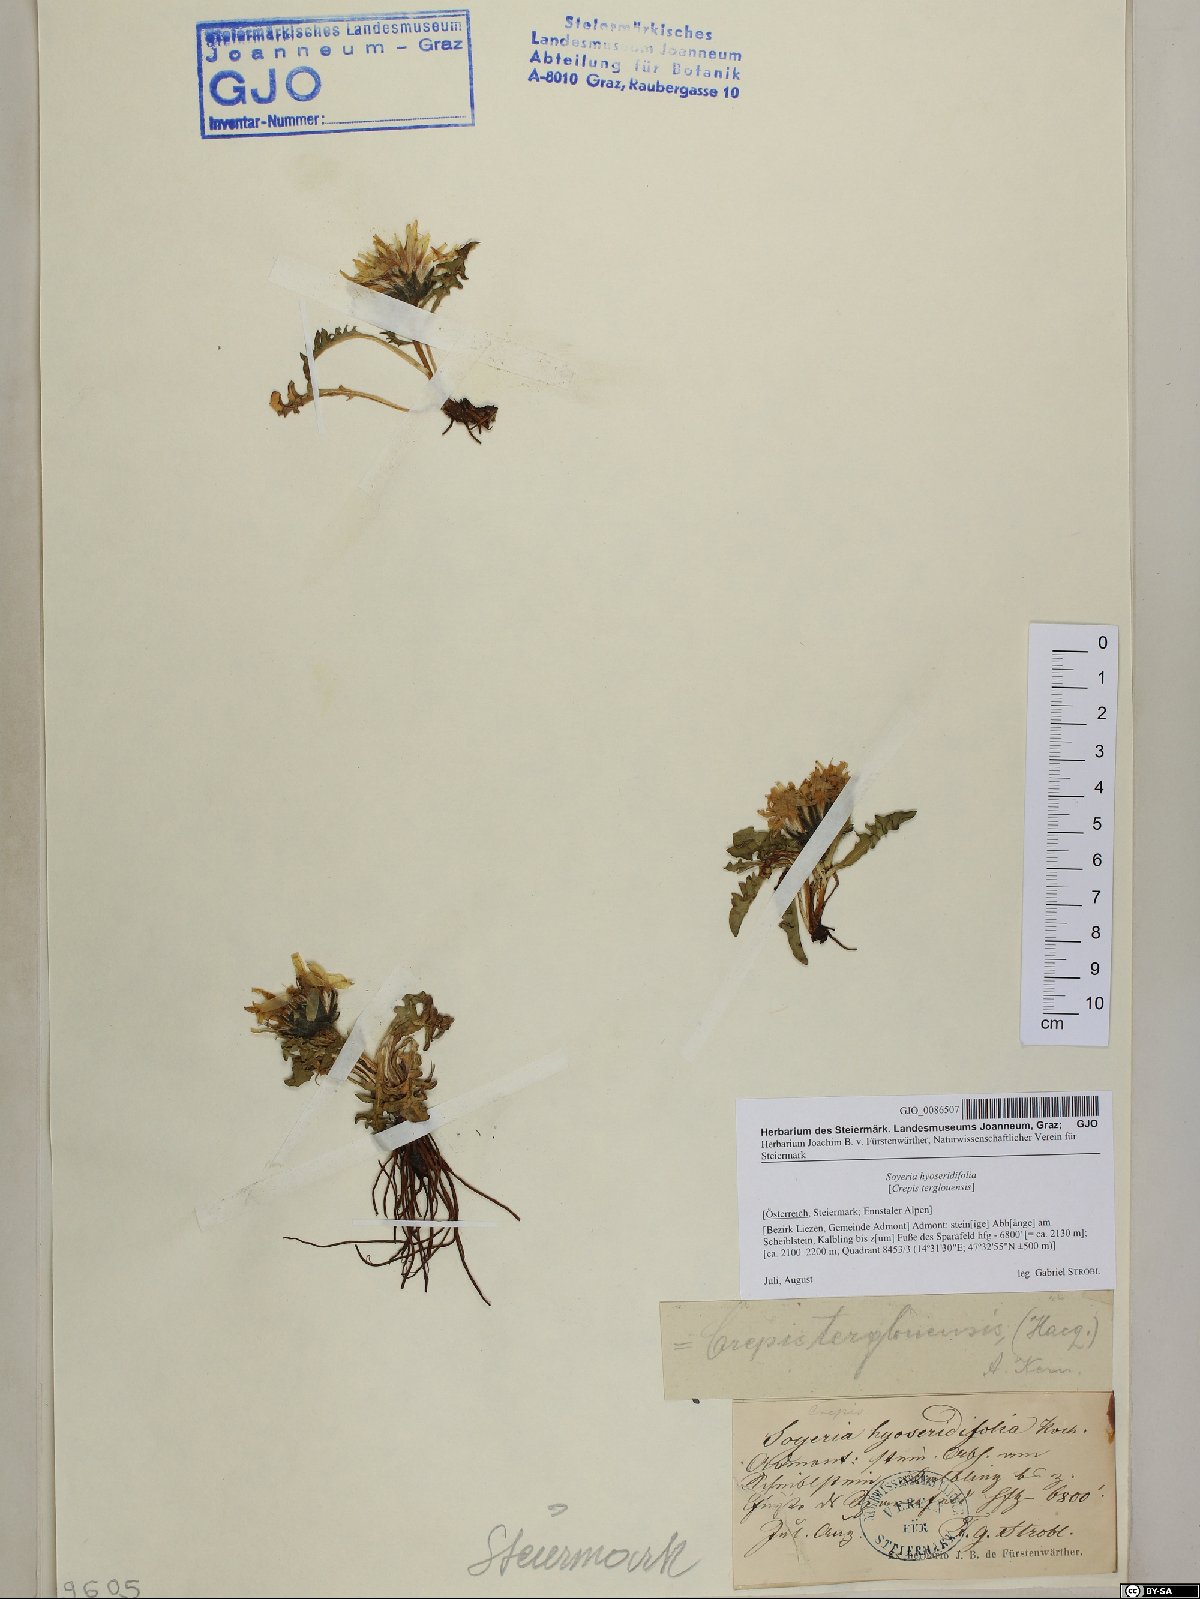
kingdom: Plantae
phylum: Tracheophyta
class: Magnoliopsida
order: Asterales
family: Asteraceae
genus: Crepis
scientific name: Crepis terglouensis
